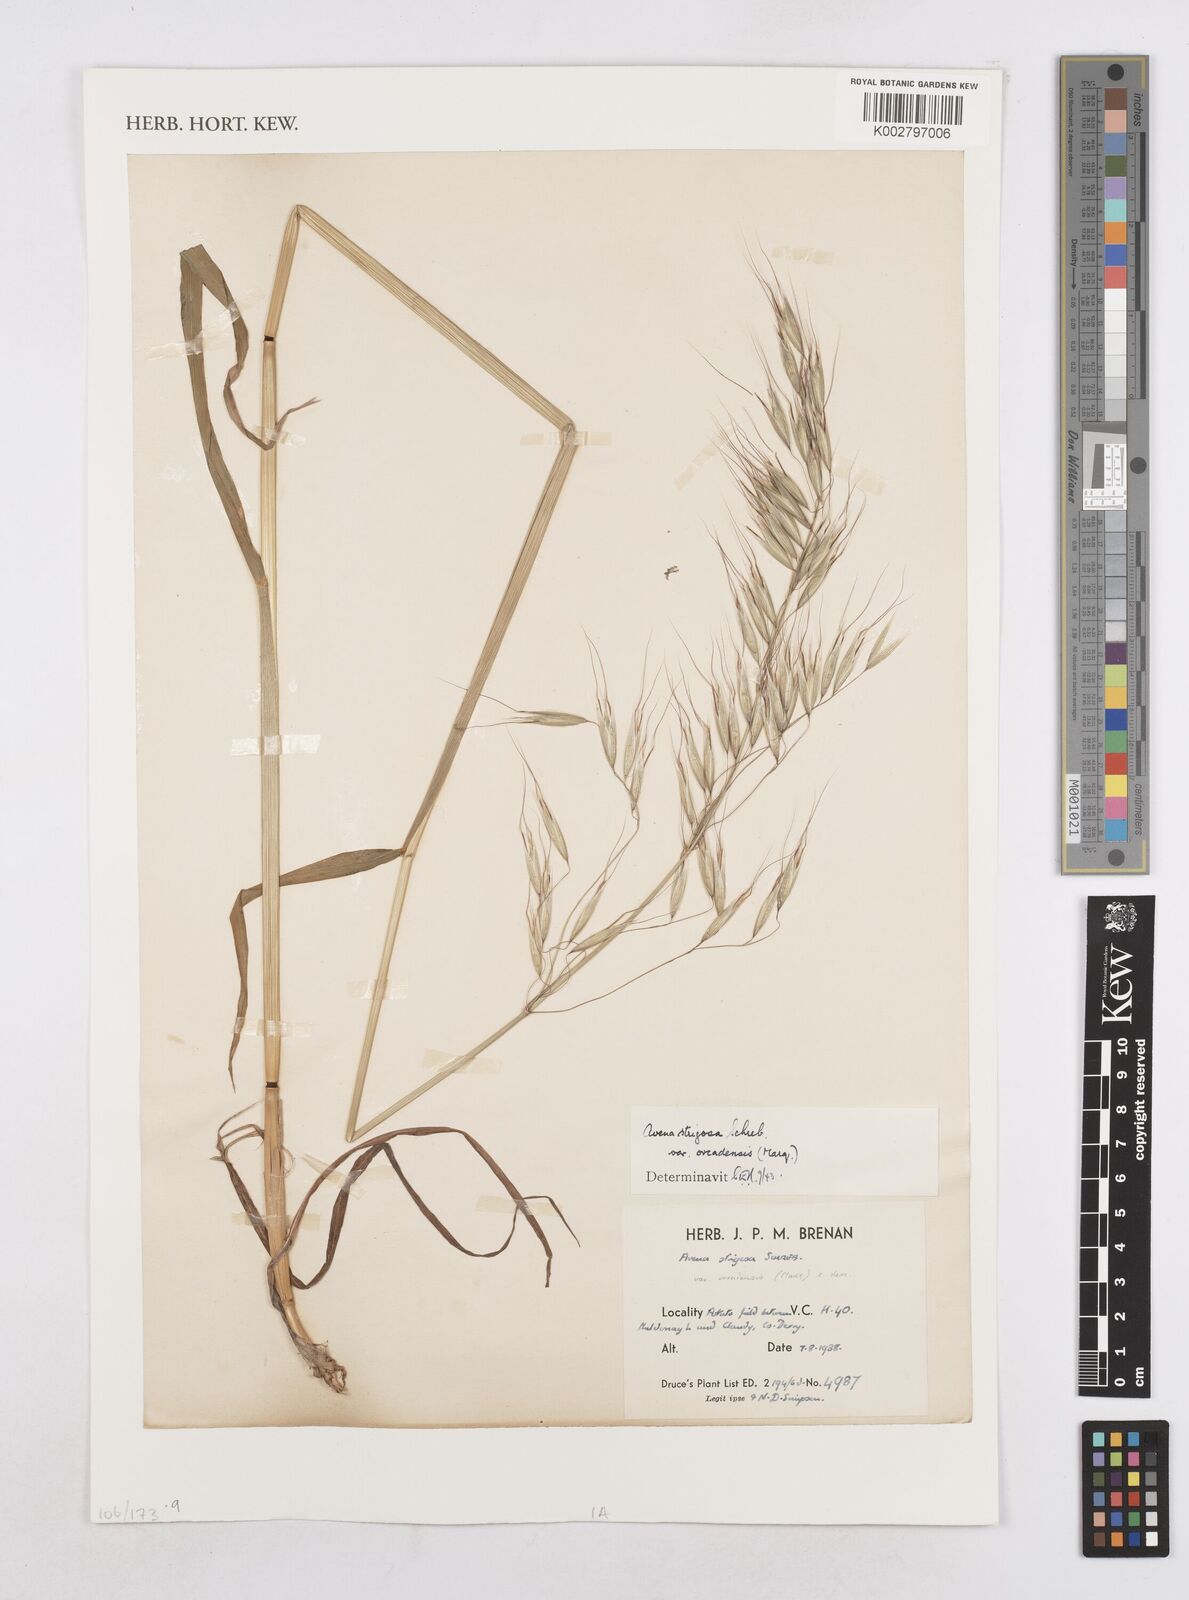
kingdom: Plantae
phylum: Tracheophyta
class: Liliopsida
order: Poales
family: Poaceae
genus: Avena
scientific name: Avena strigosa
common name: Bristle oat
